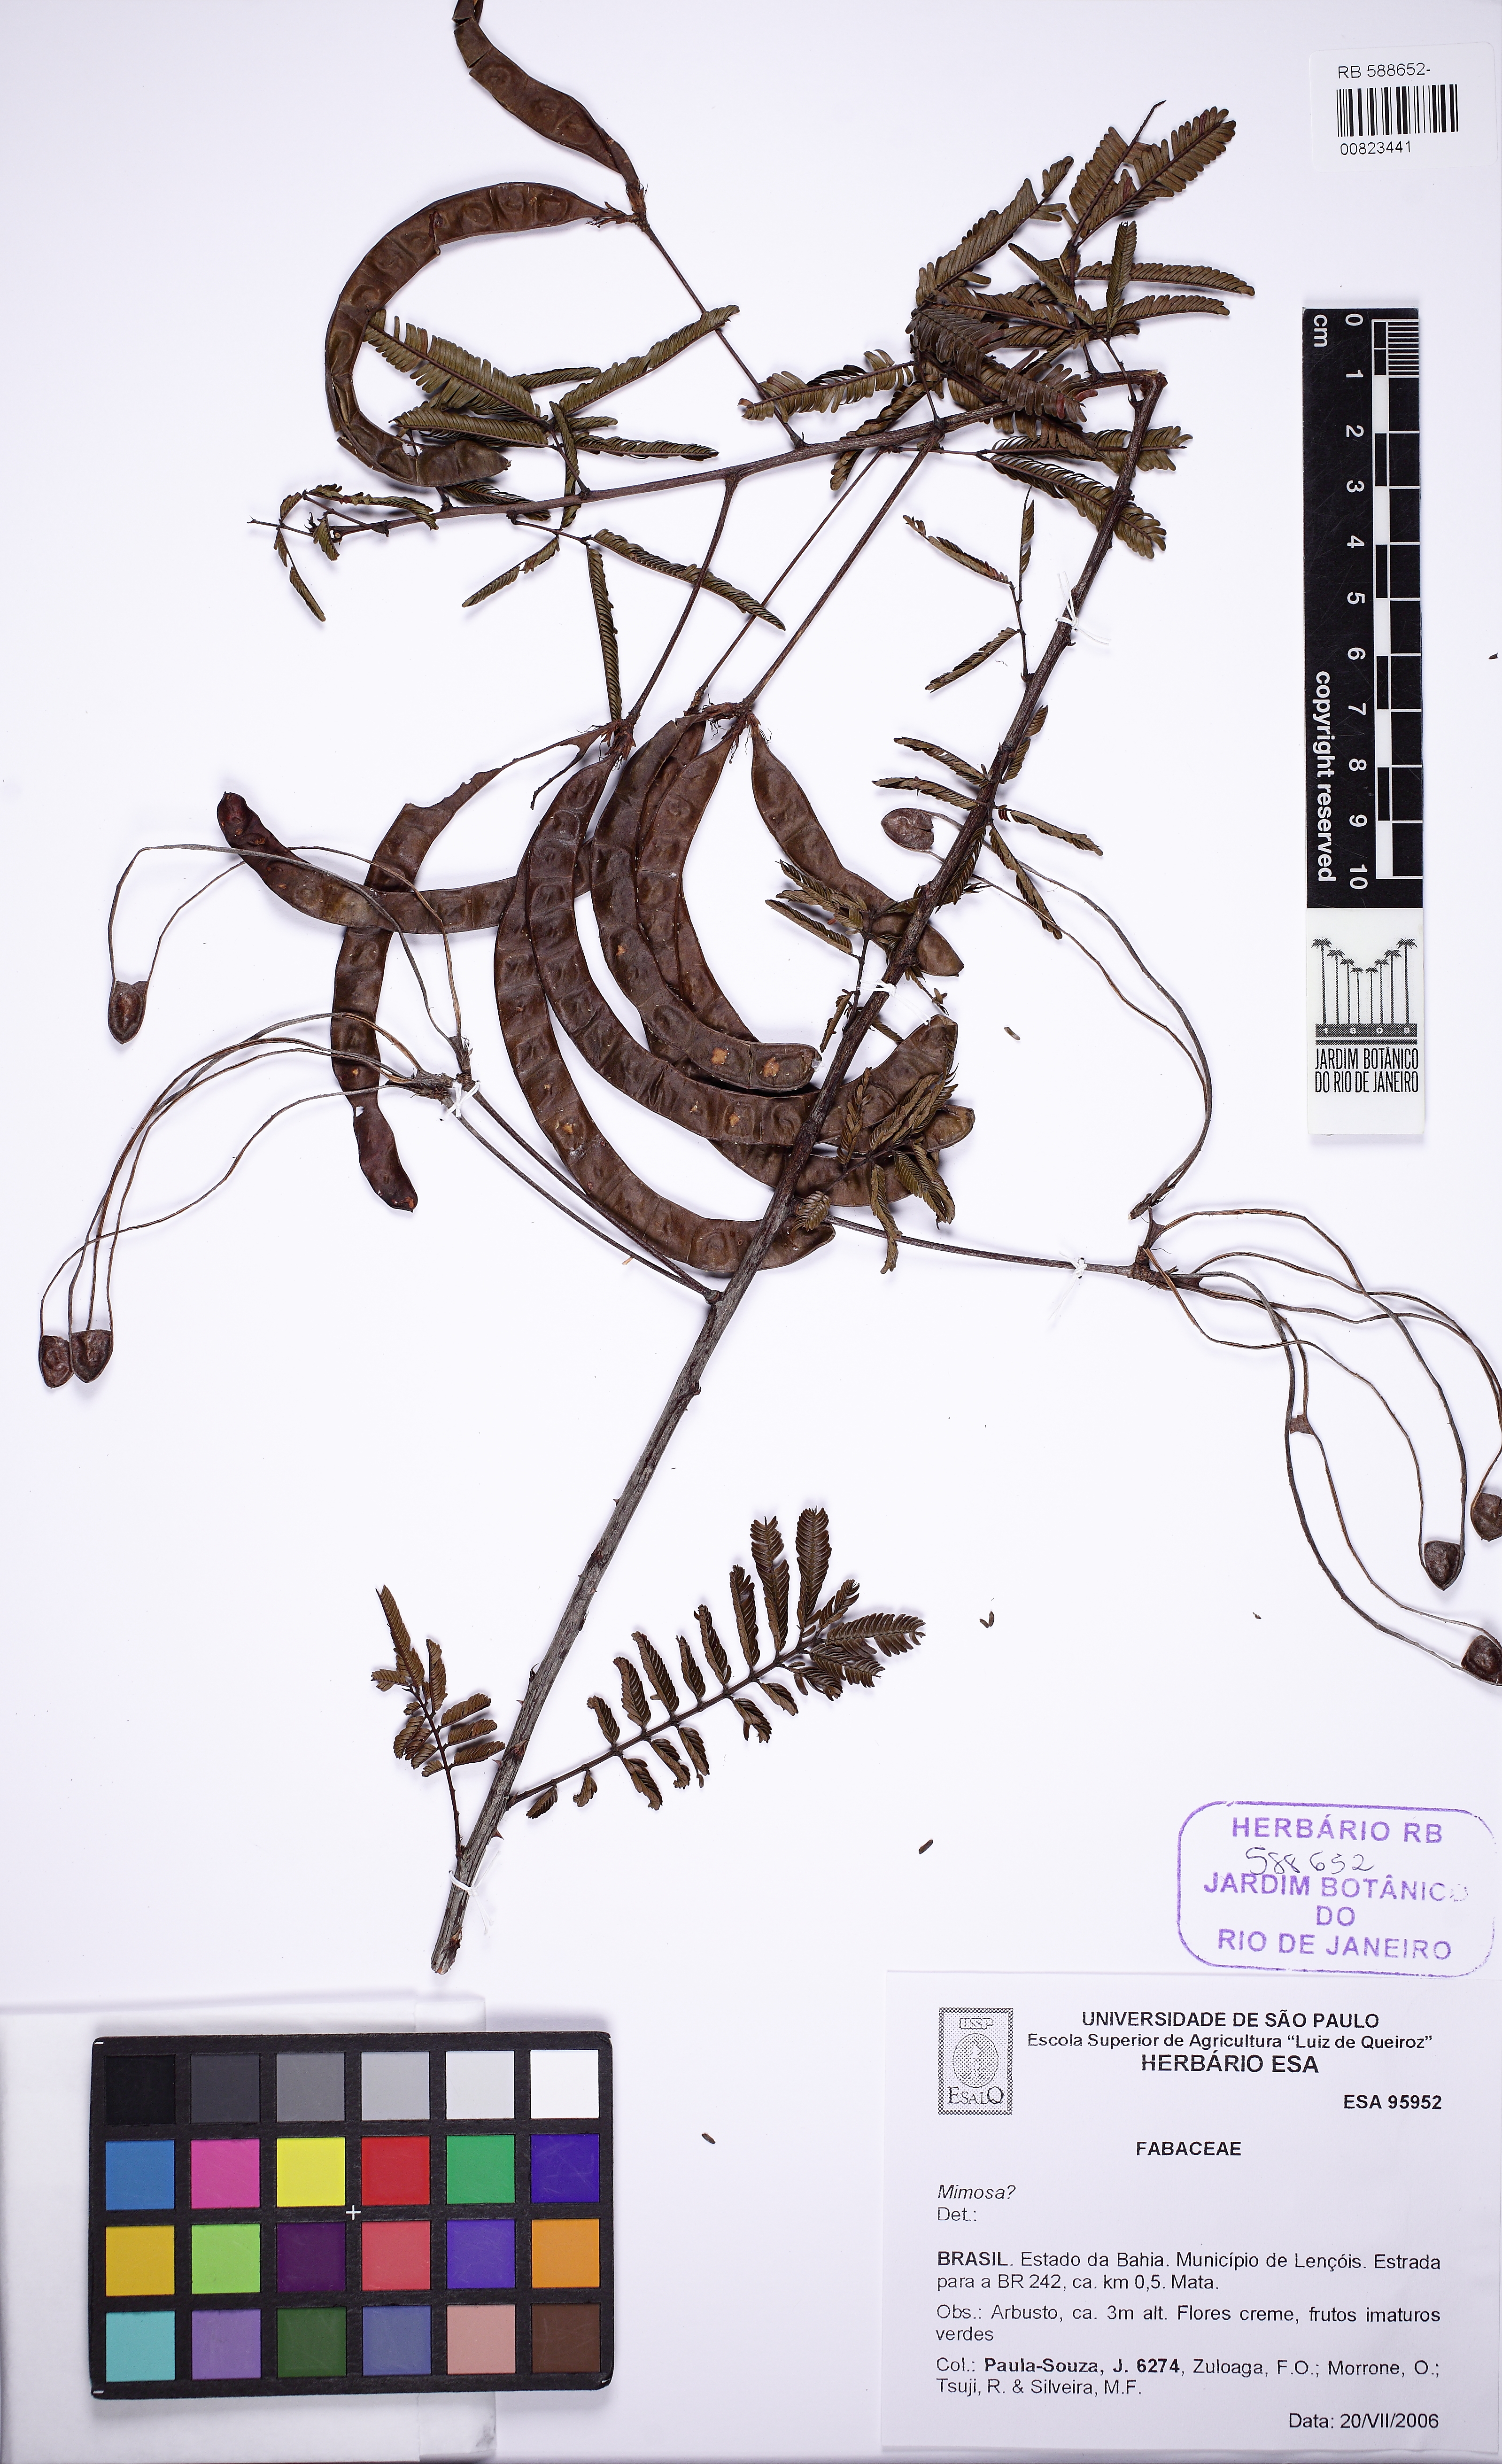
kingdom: Plantae
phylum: Tracheophyta
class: Magnoliopsida
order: Fabales
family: Fabaceae
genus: Mimosa
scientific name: Mimosa invisa
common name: Creeping sensitive-plant
